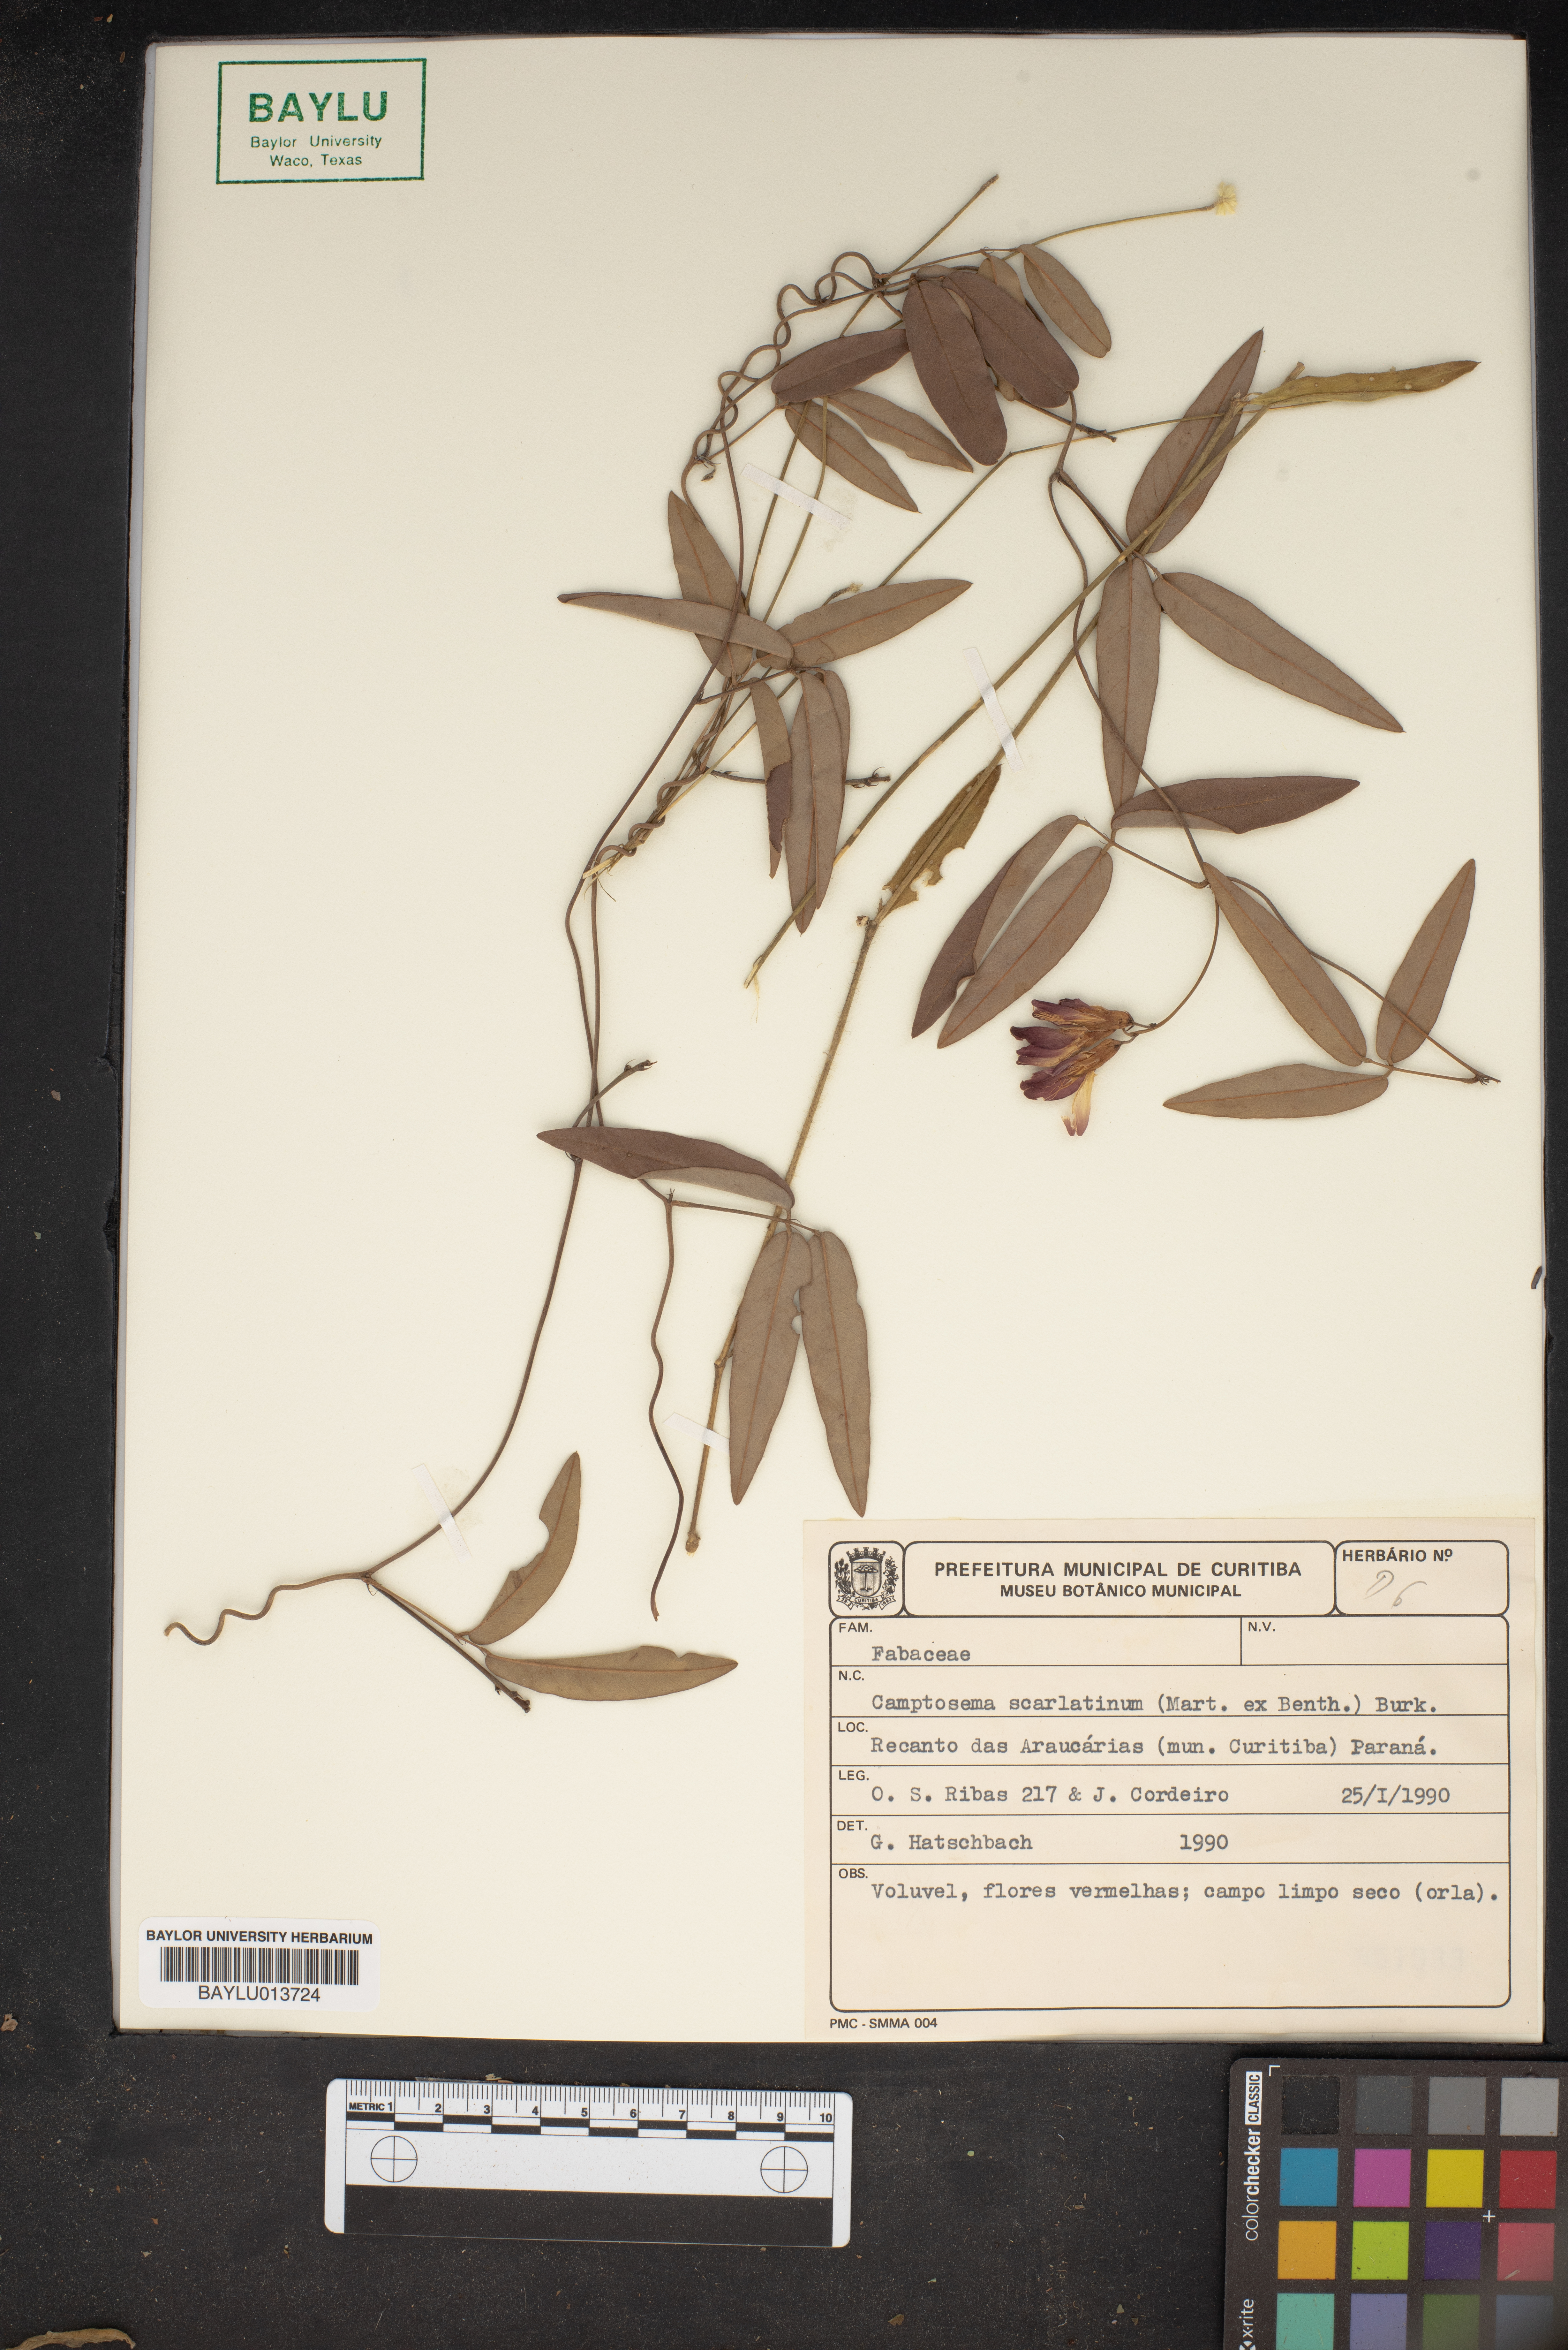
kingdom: Plantae
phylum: Tracheophyta
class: Magnoliopsida
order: Fabales
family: Fabaceae
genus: Betencourtia
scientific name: Betencourtia scarlatina
